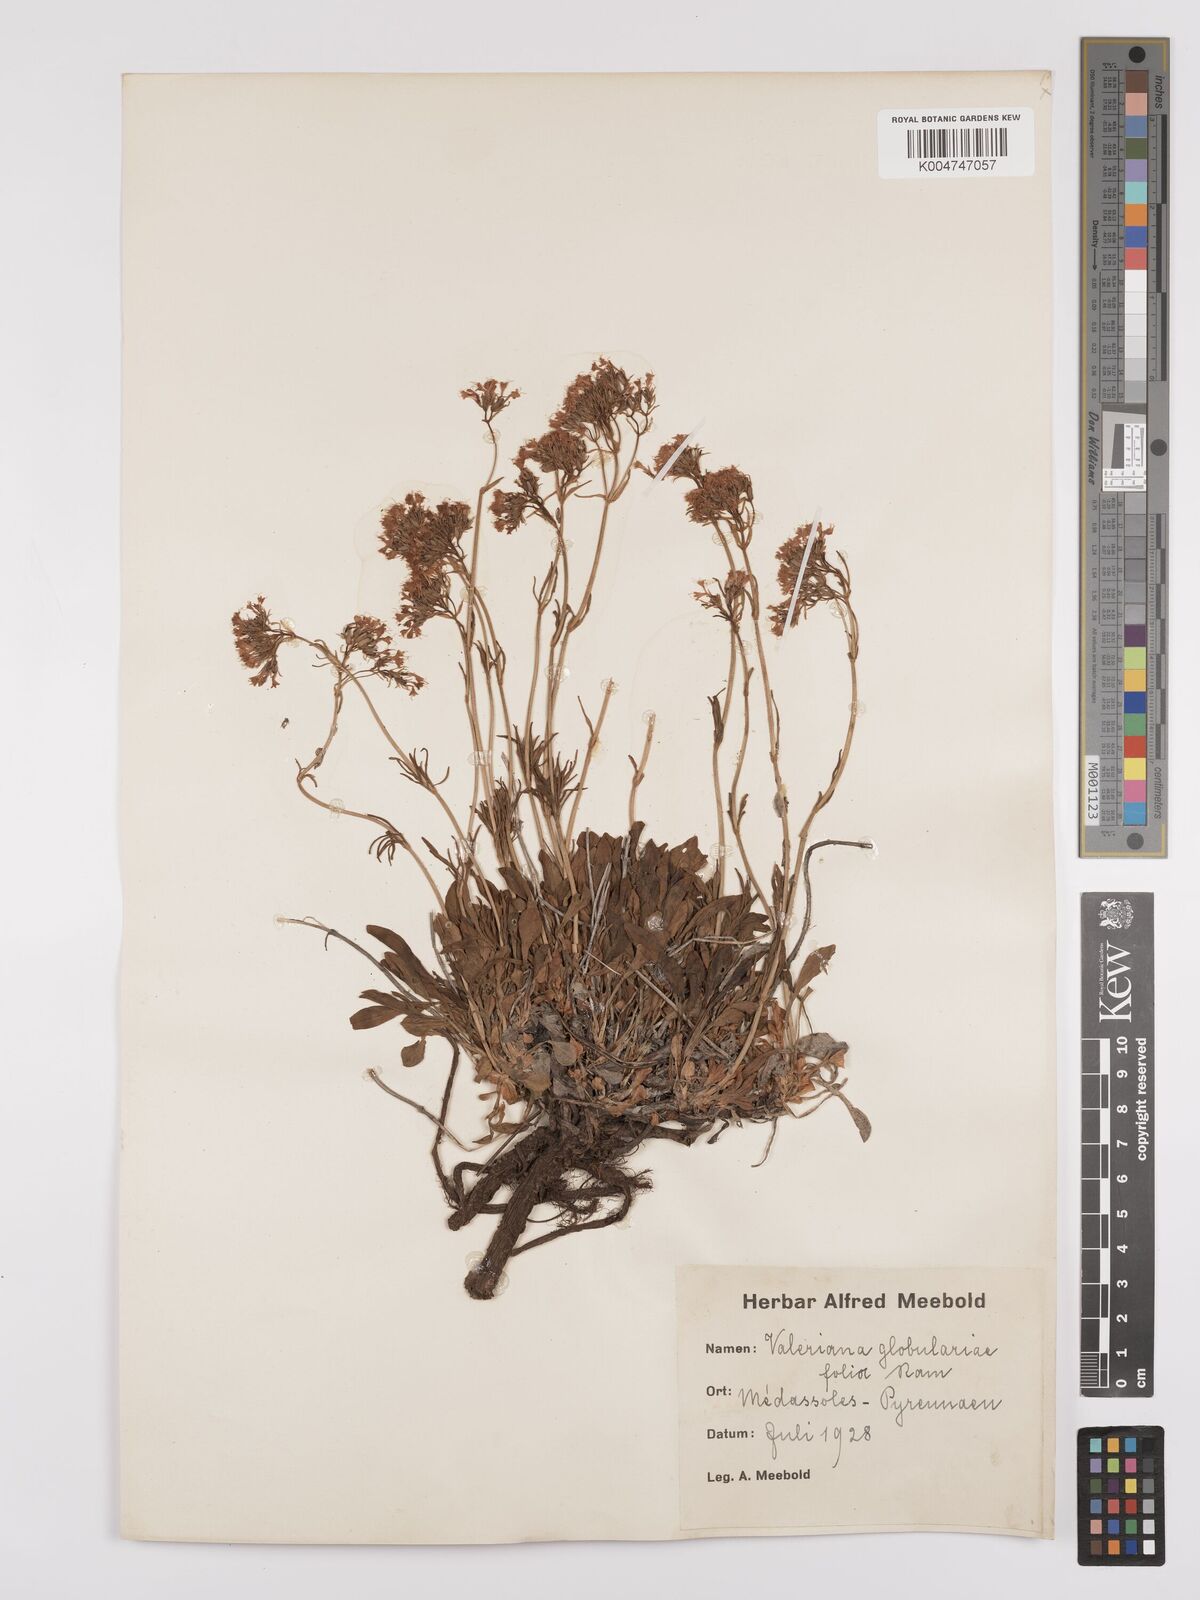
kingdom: Plantae
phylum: Tracheophyta
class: Magnoliopsida
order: Dipsacales
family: Caprifoliaceae
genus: Valeriana
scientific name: Valeriana apula
